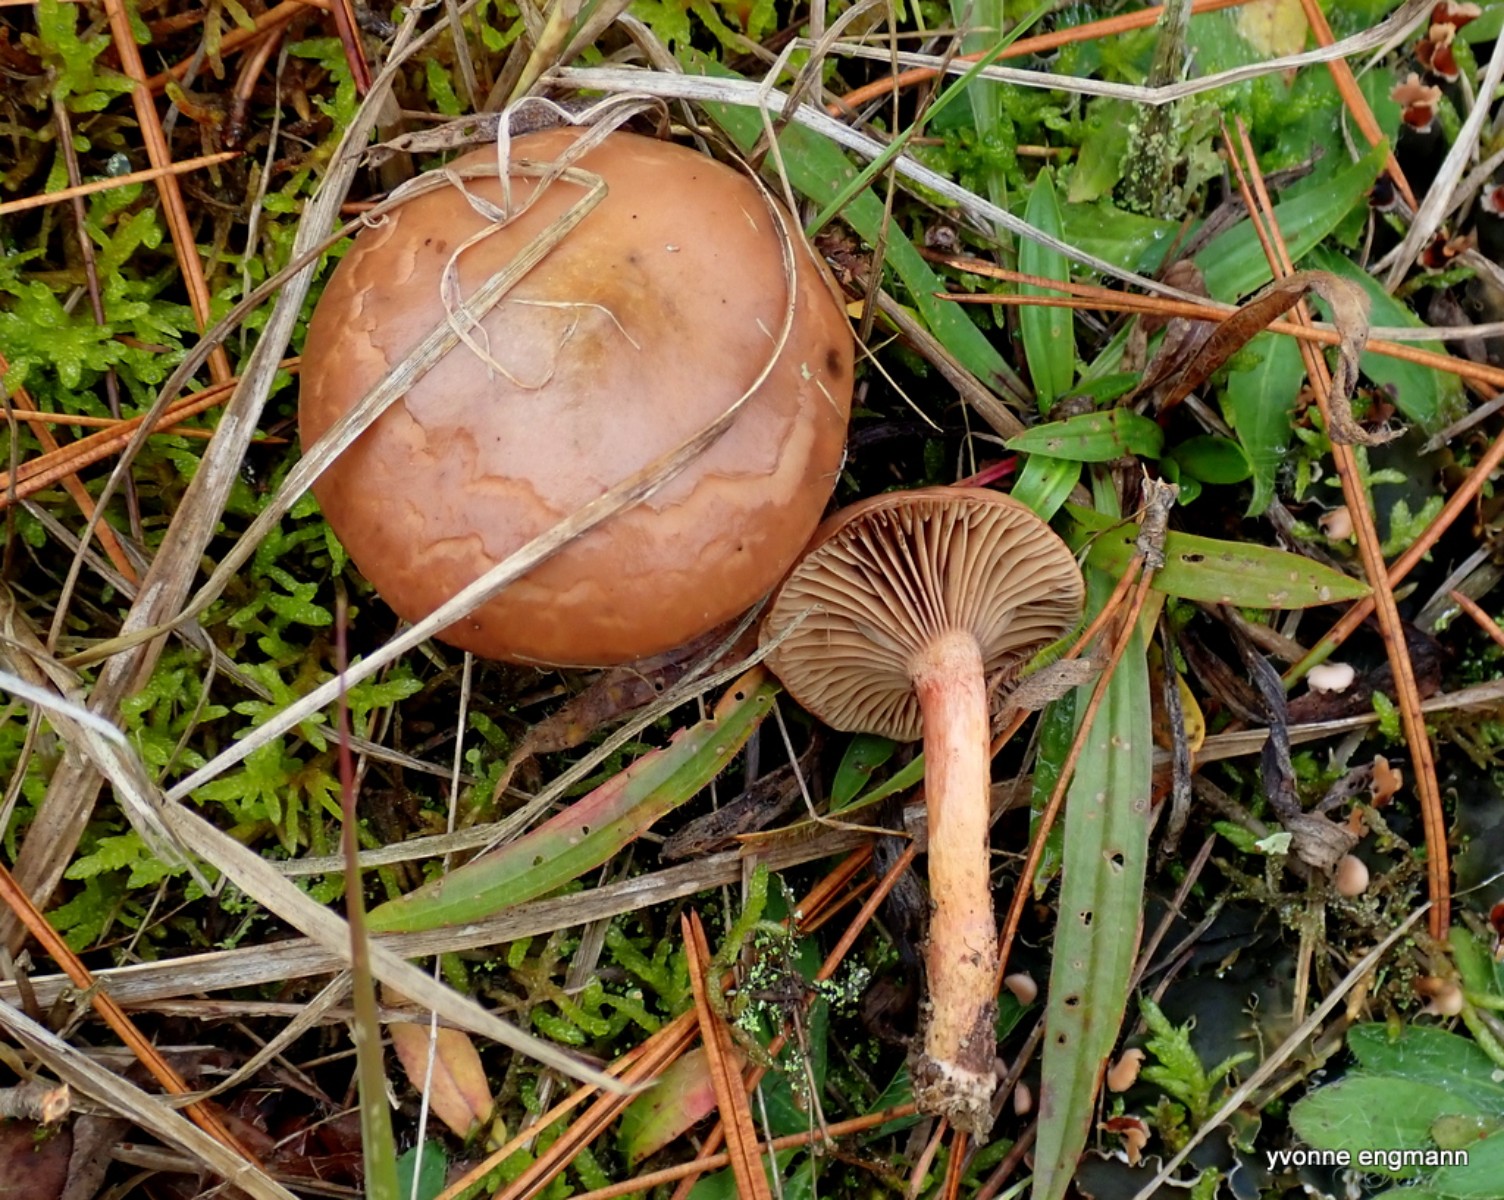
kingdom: Fungi
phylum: Basidiomycota
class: Agaricomycetes
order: Boletales
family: Gomphidiaceae
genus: Chroogomphus
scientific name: Chroogomphus rutilus
